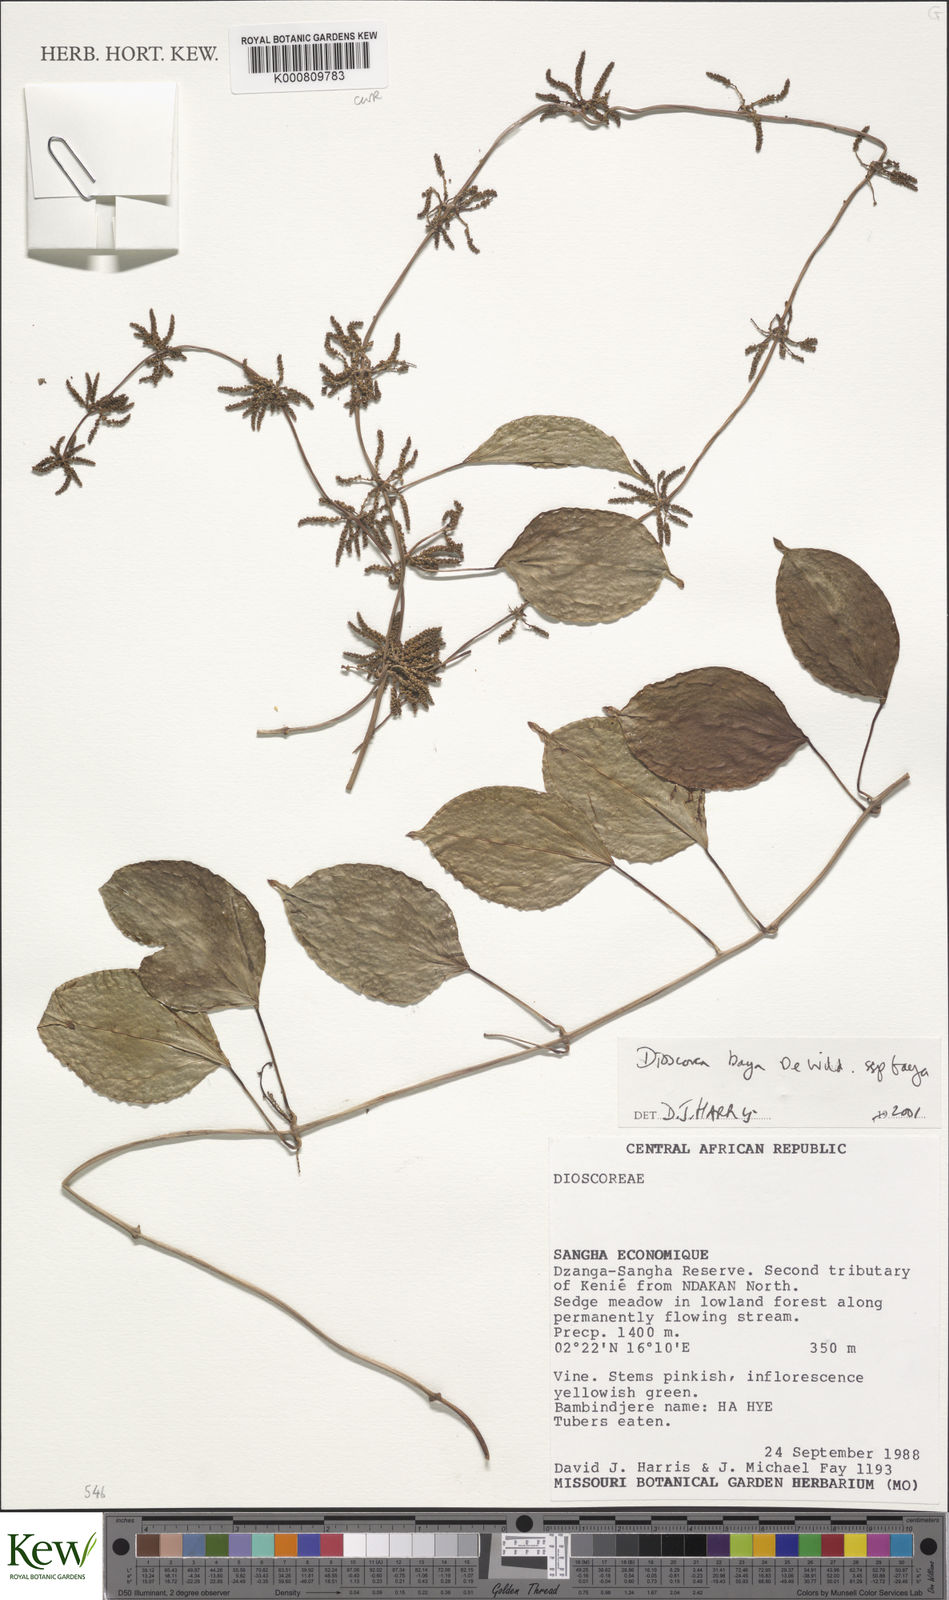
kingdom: Plantae
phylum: Tracheophyta
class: Liliopsida
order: Dioscoreales
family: Dioscoreaceae
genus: Dioscorea
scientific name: Dioscorea baya
